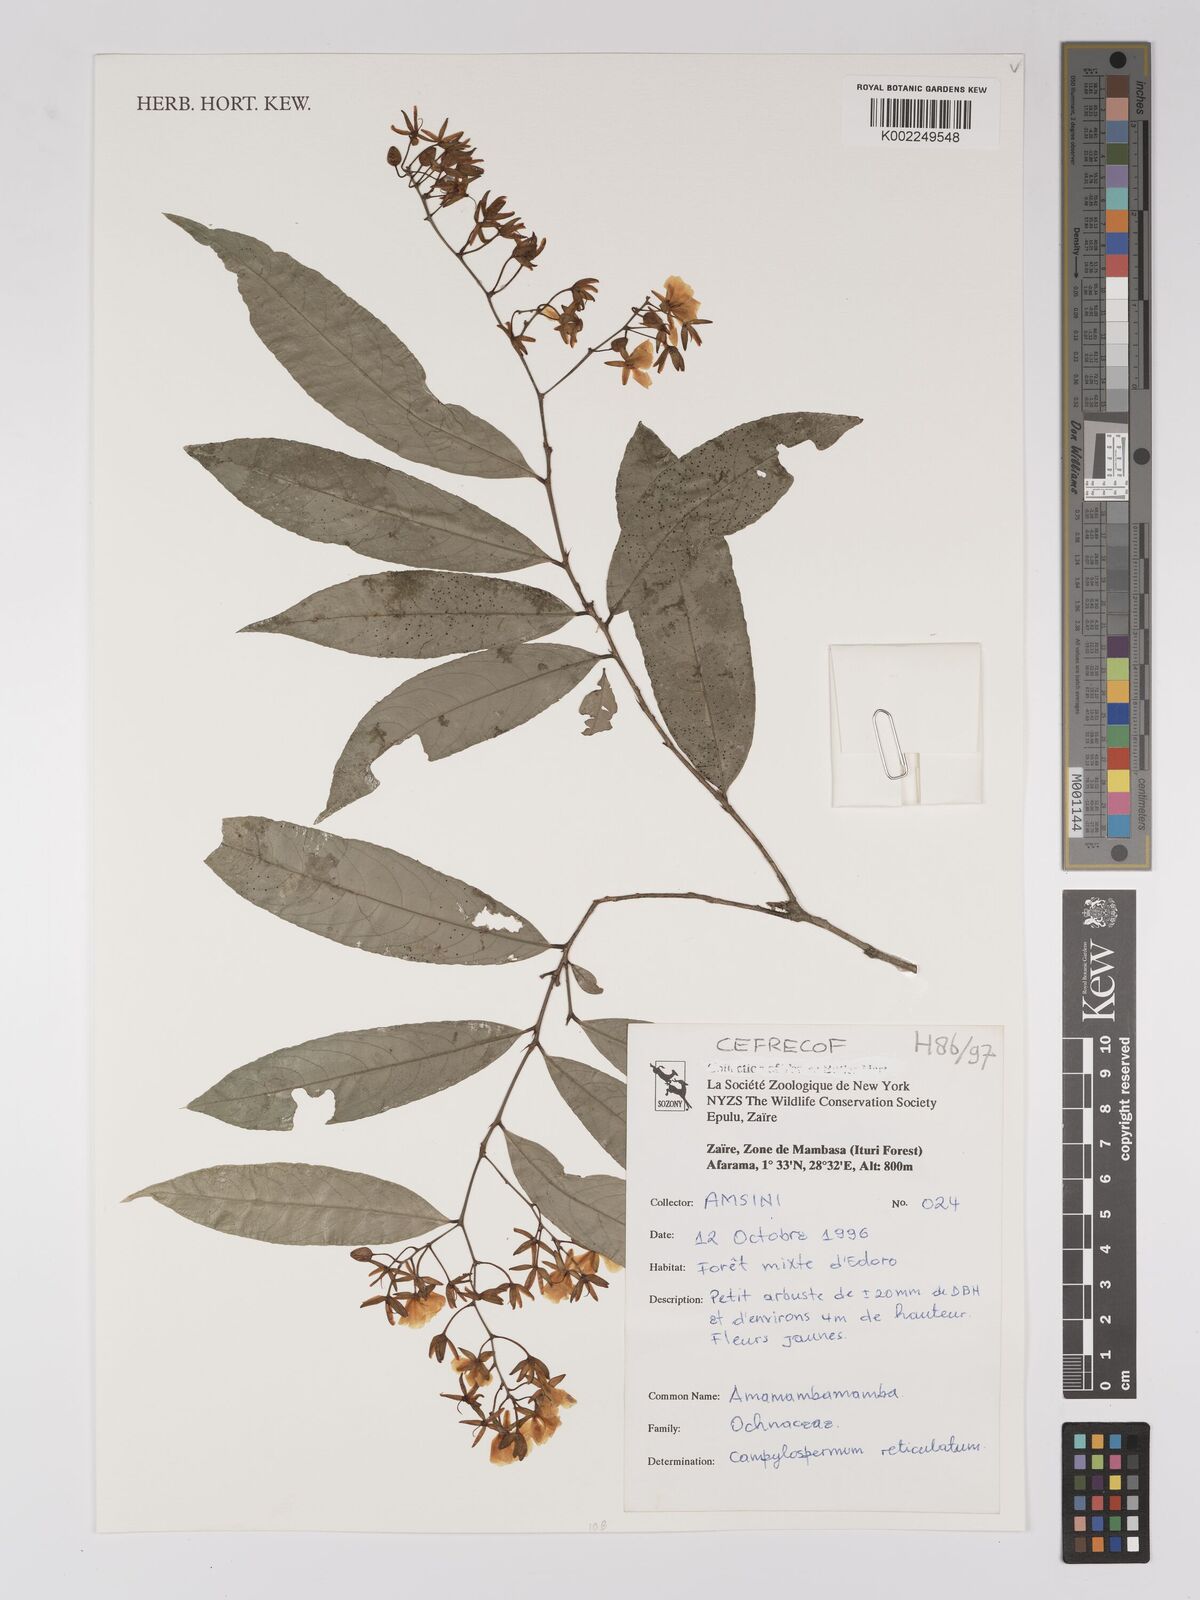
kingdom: Plantae
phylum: Tracheophyta
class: Magnoliopsida
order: Malpighiales
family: Ochnaceae
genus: Campylospermum
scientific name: Campylospermum reticulatum
